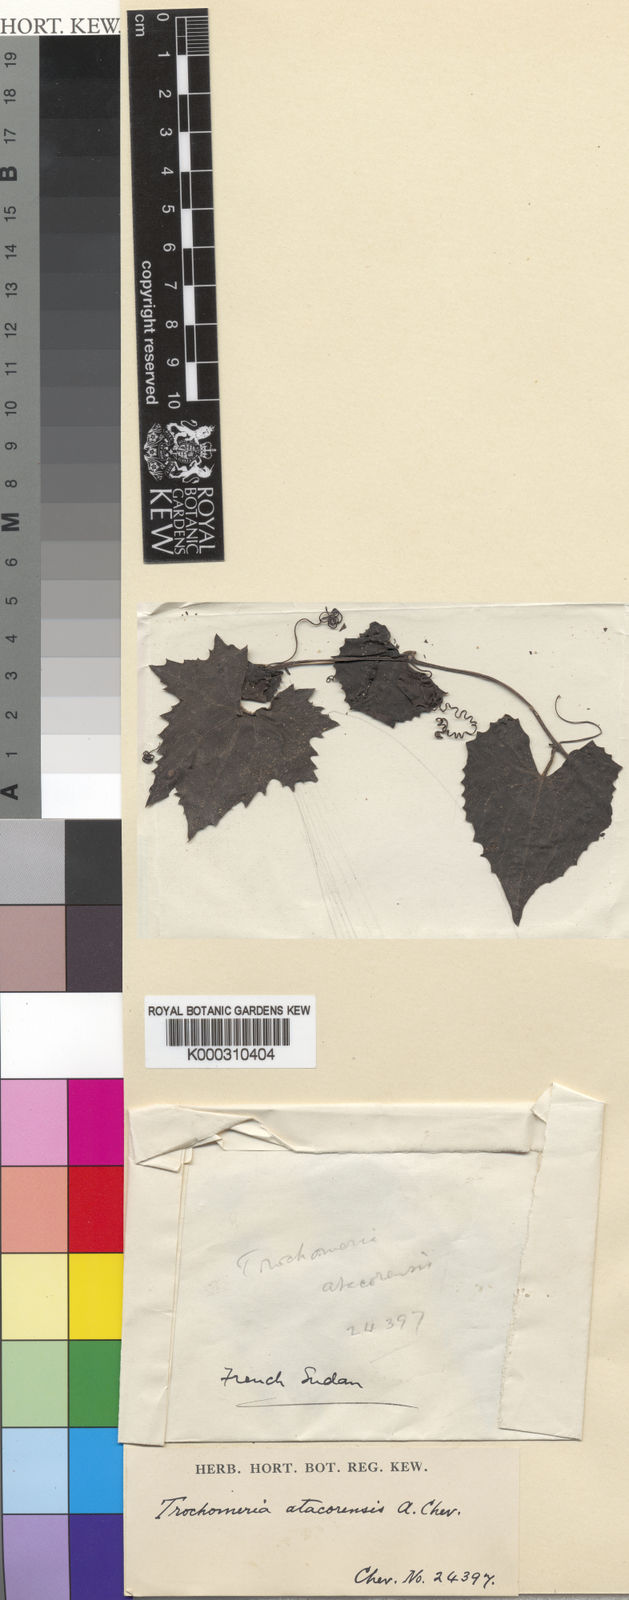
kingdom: Plantae
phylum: Tracheophyta
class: Magnoliopsida
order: Cucurbitales
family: Cucurbitaceae
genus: Trochomeria
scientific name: Trochomeria macrocarpa
